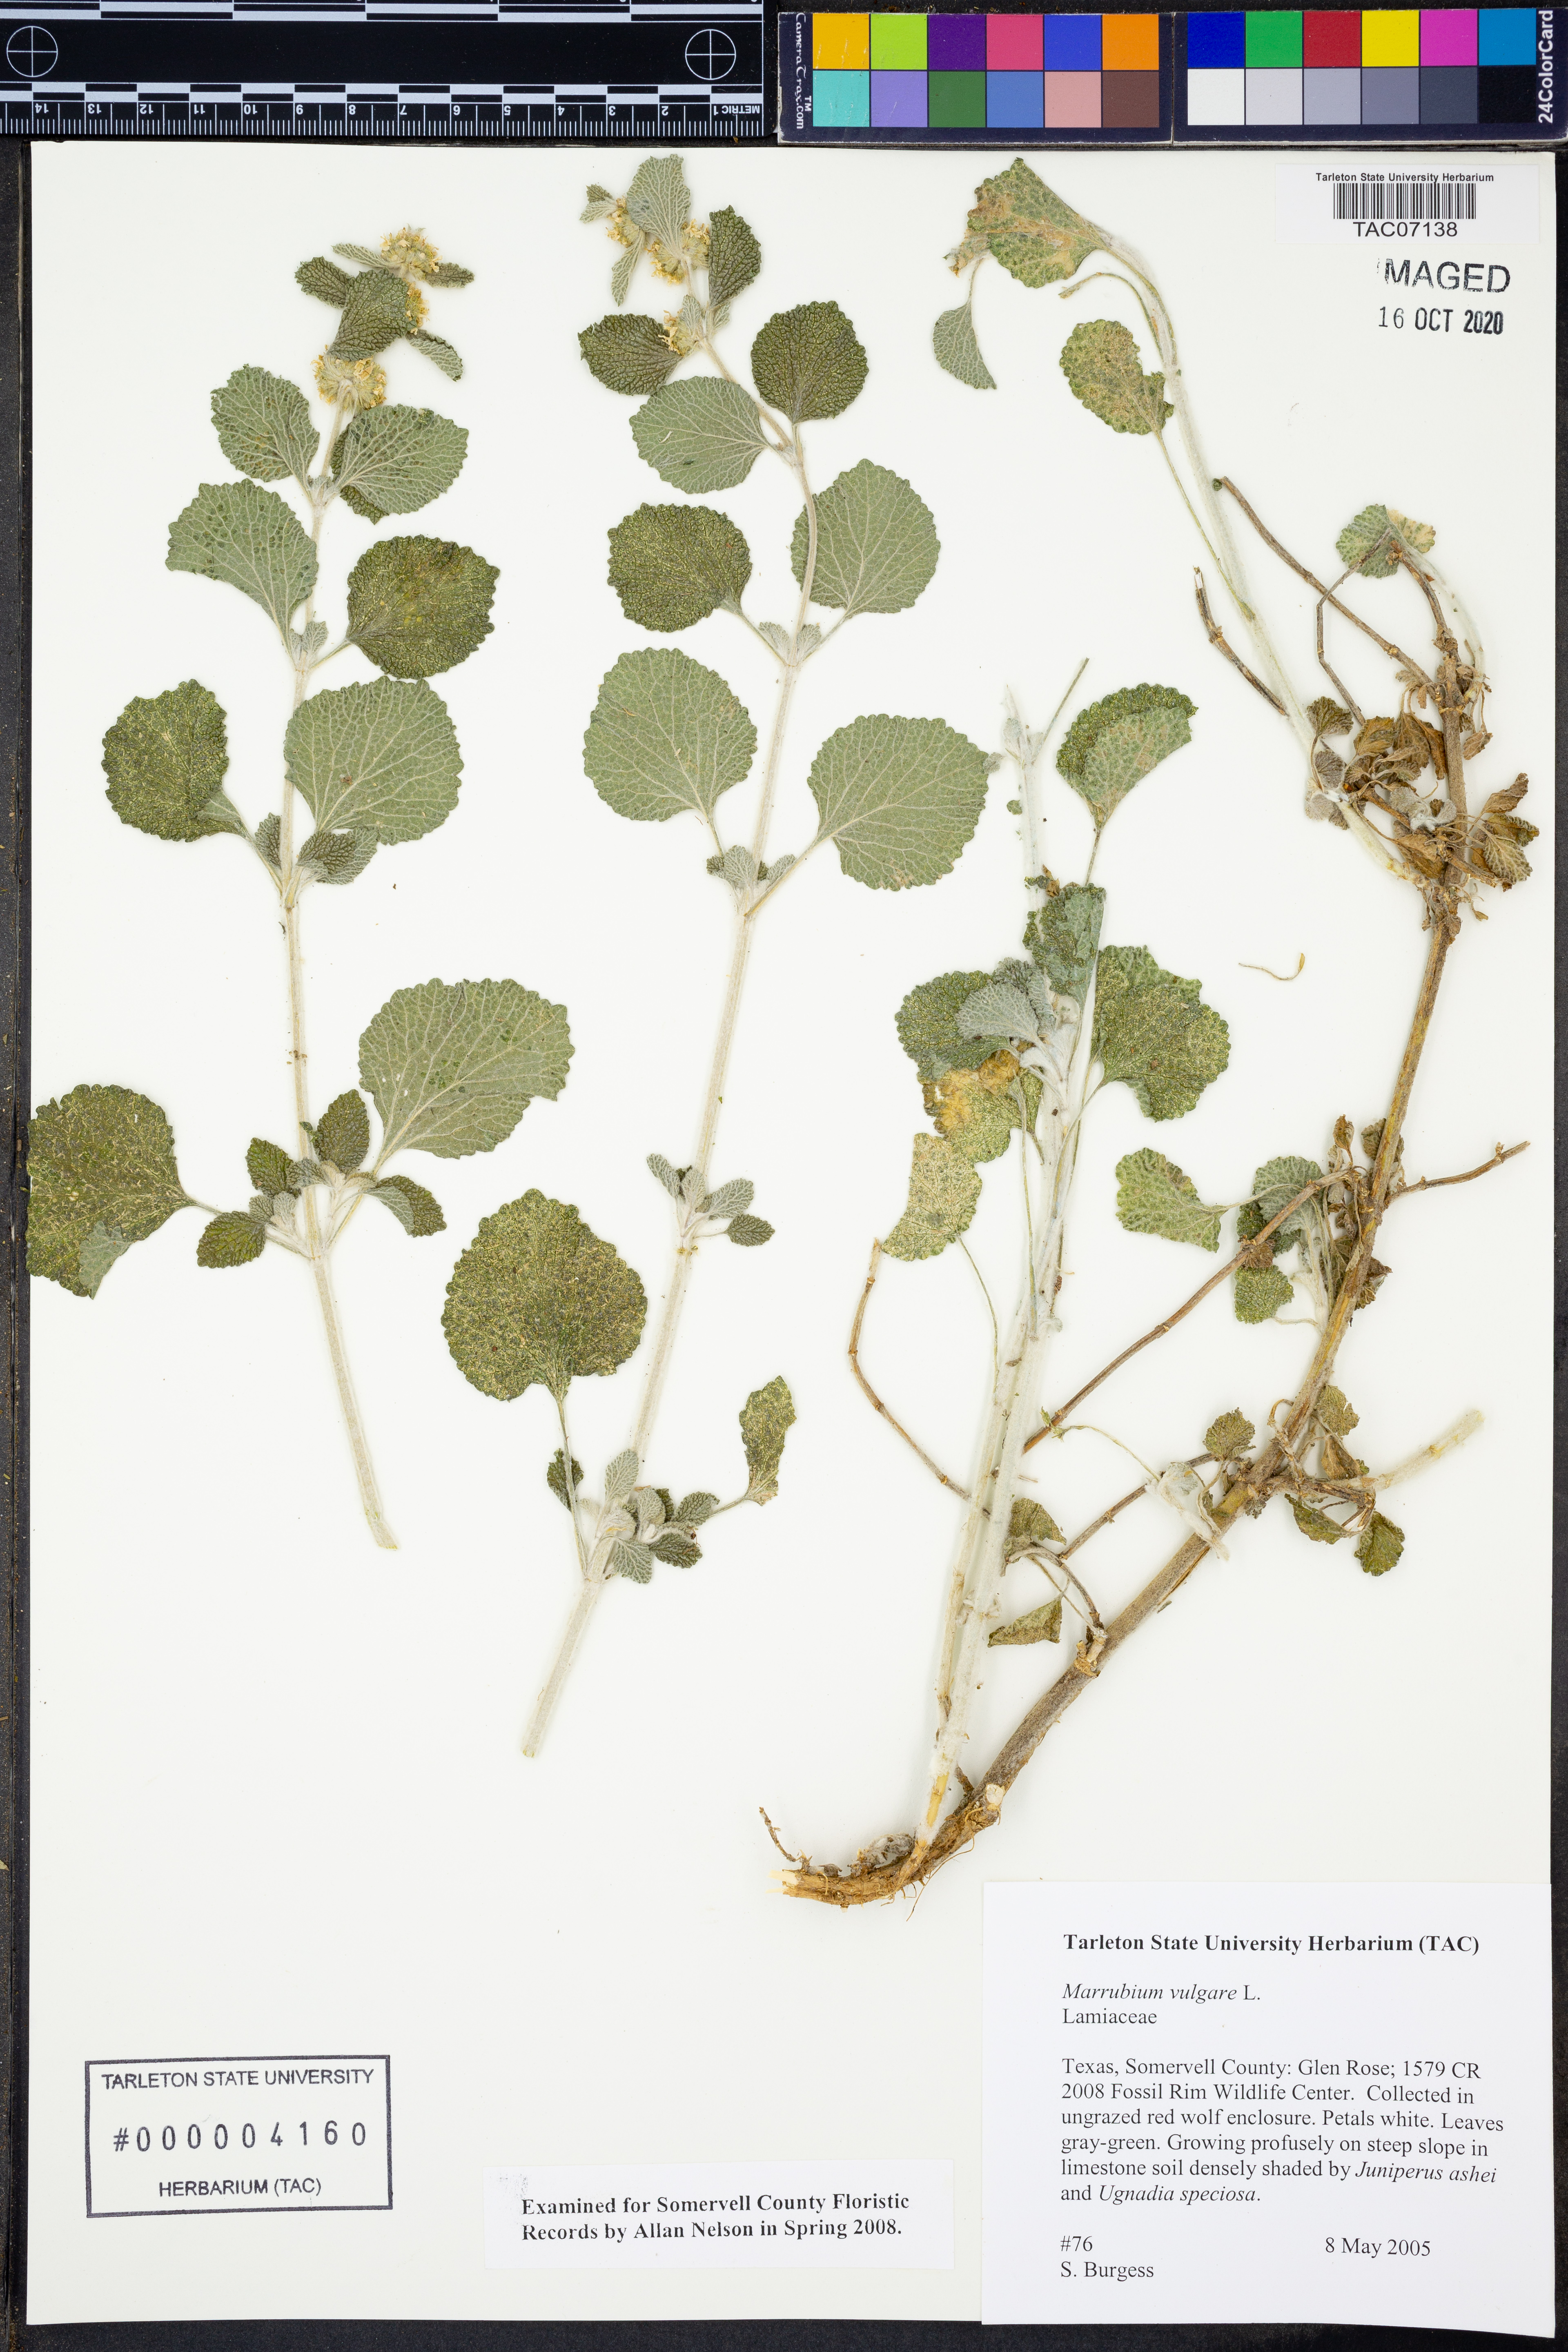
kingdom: Plantae
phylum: Tracheophyta
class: Magnoliopsida
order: Lamiales
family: Lamiaceae
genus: Marrubium
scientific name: Marrubium vulgare
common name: Horehound
